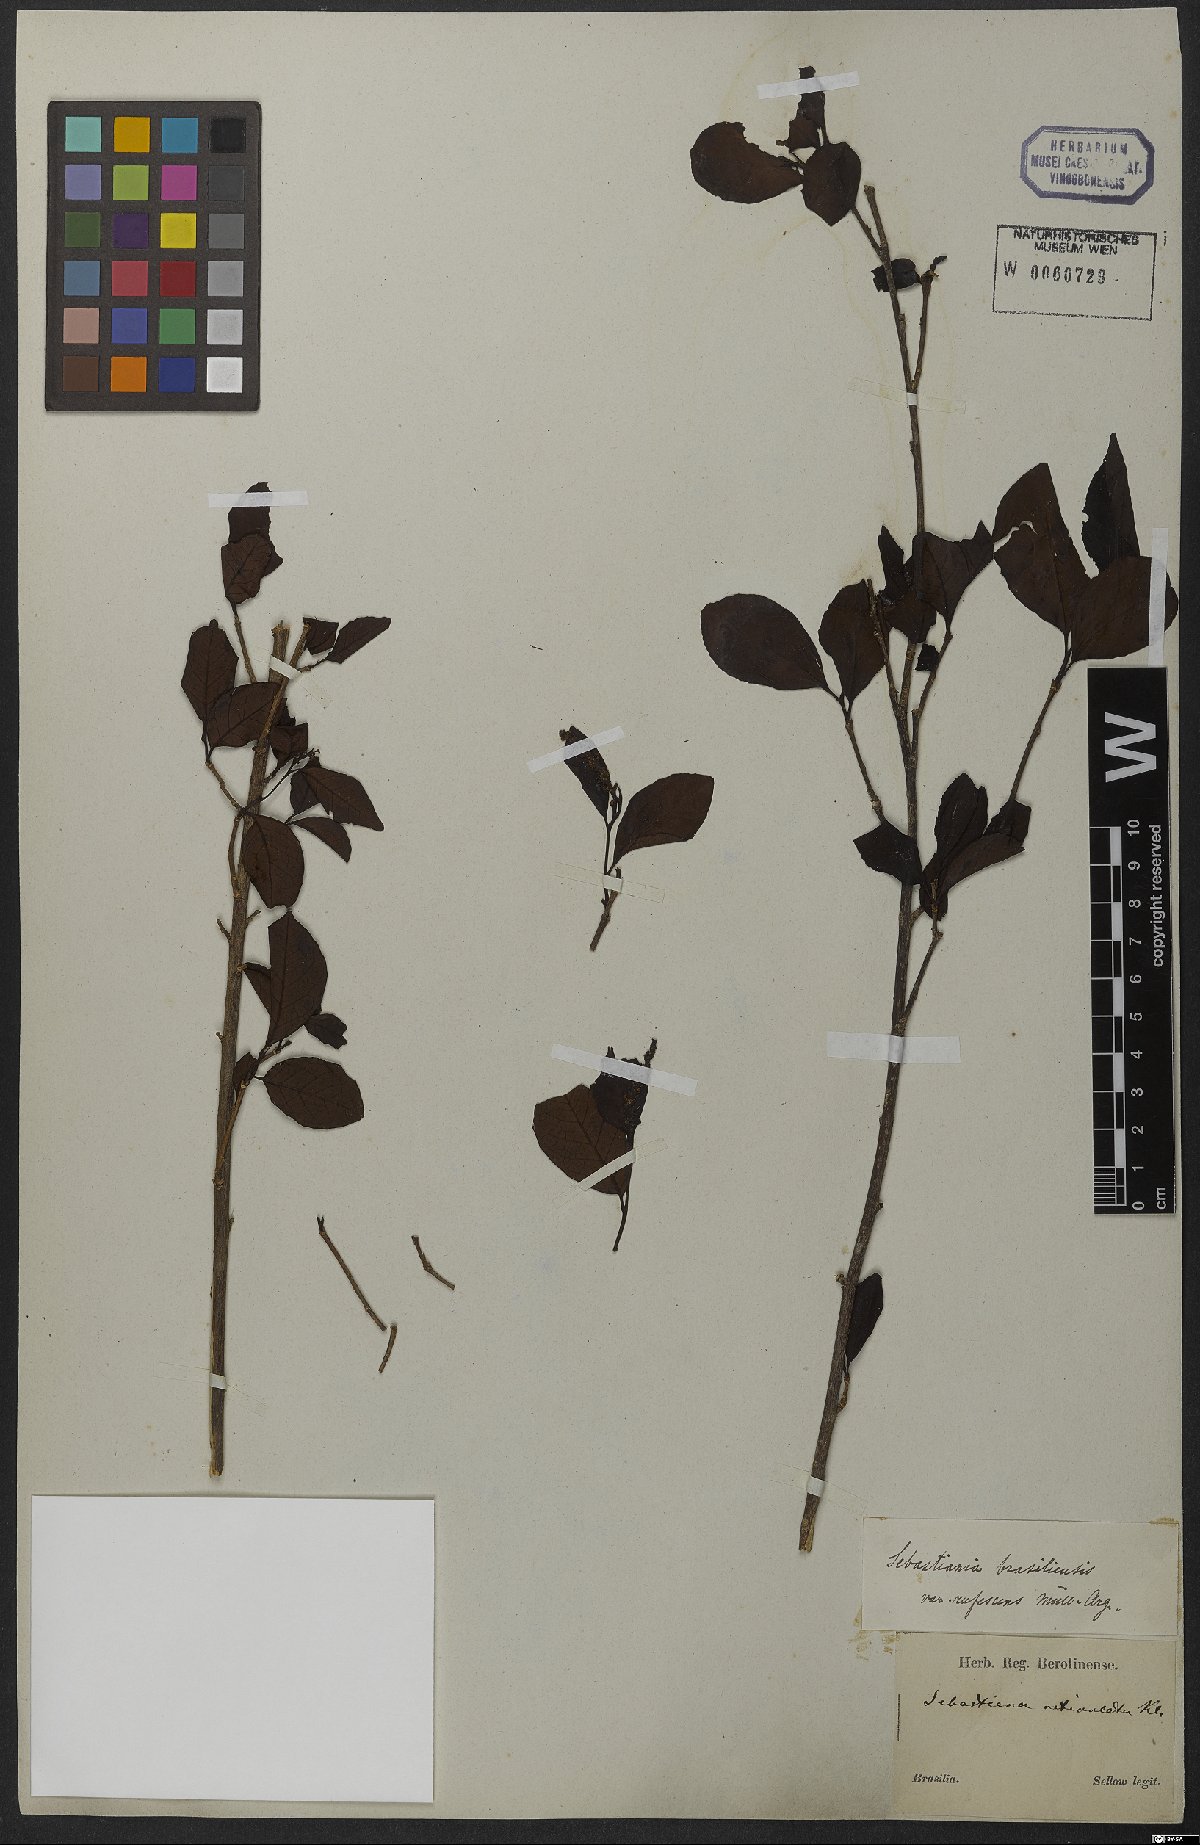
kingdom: Plantae
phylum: Tracheophyta
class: Magnoliopsida
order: Malpighiales
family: Euphorbiaceae
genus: Sebastiania
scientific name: Sebastiania ramosissima
